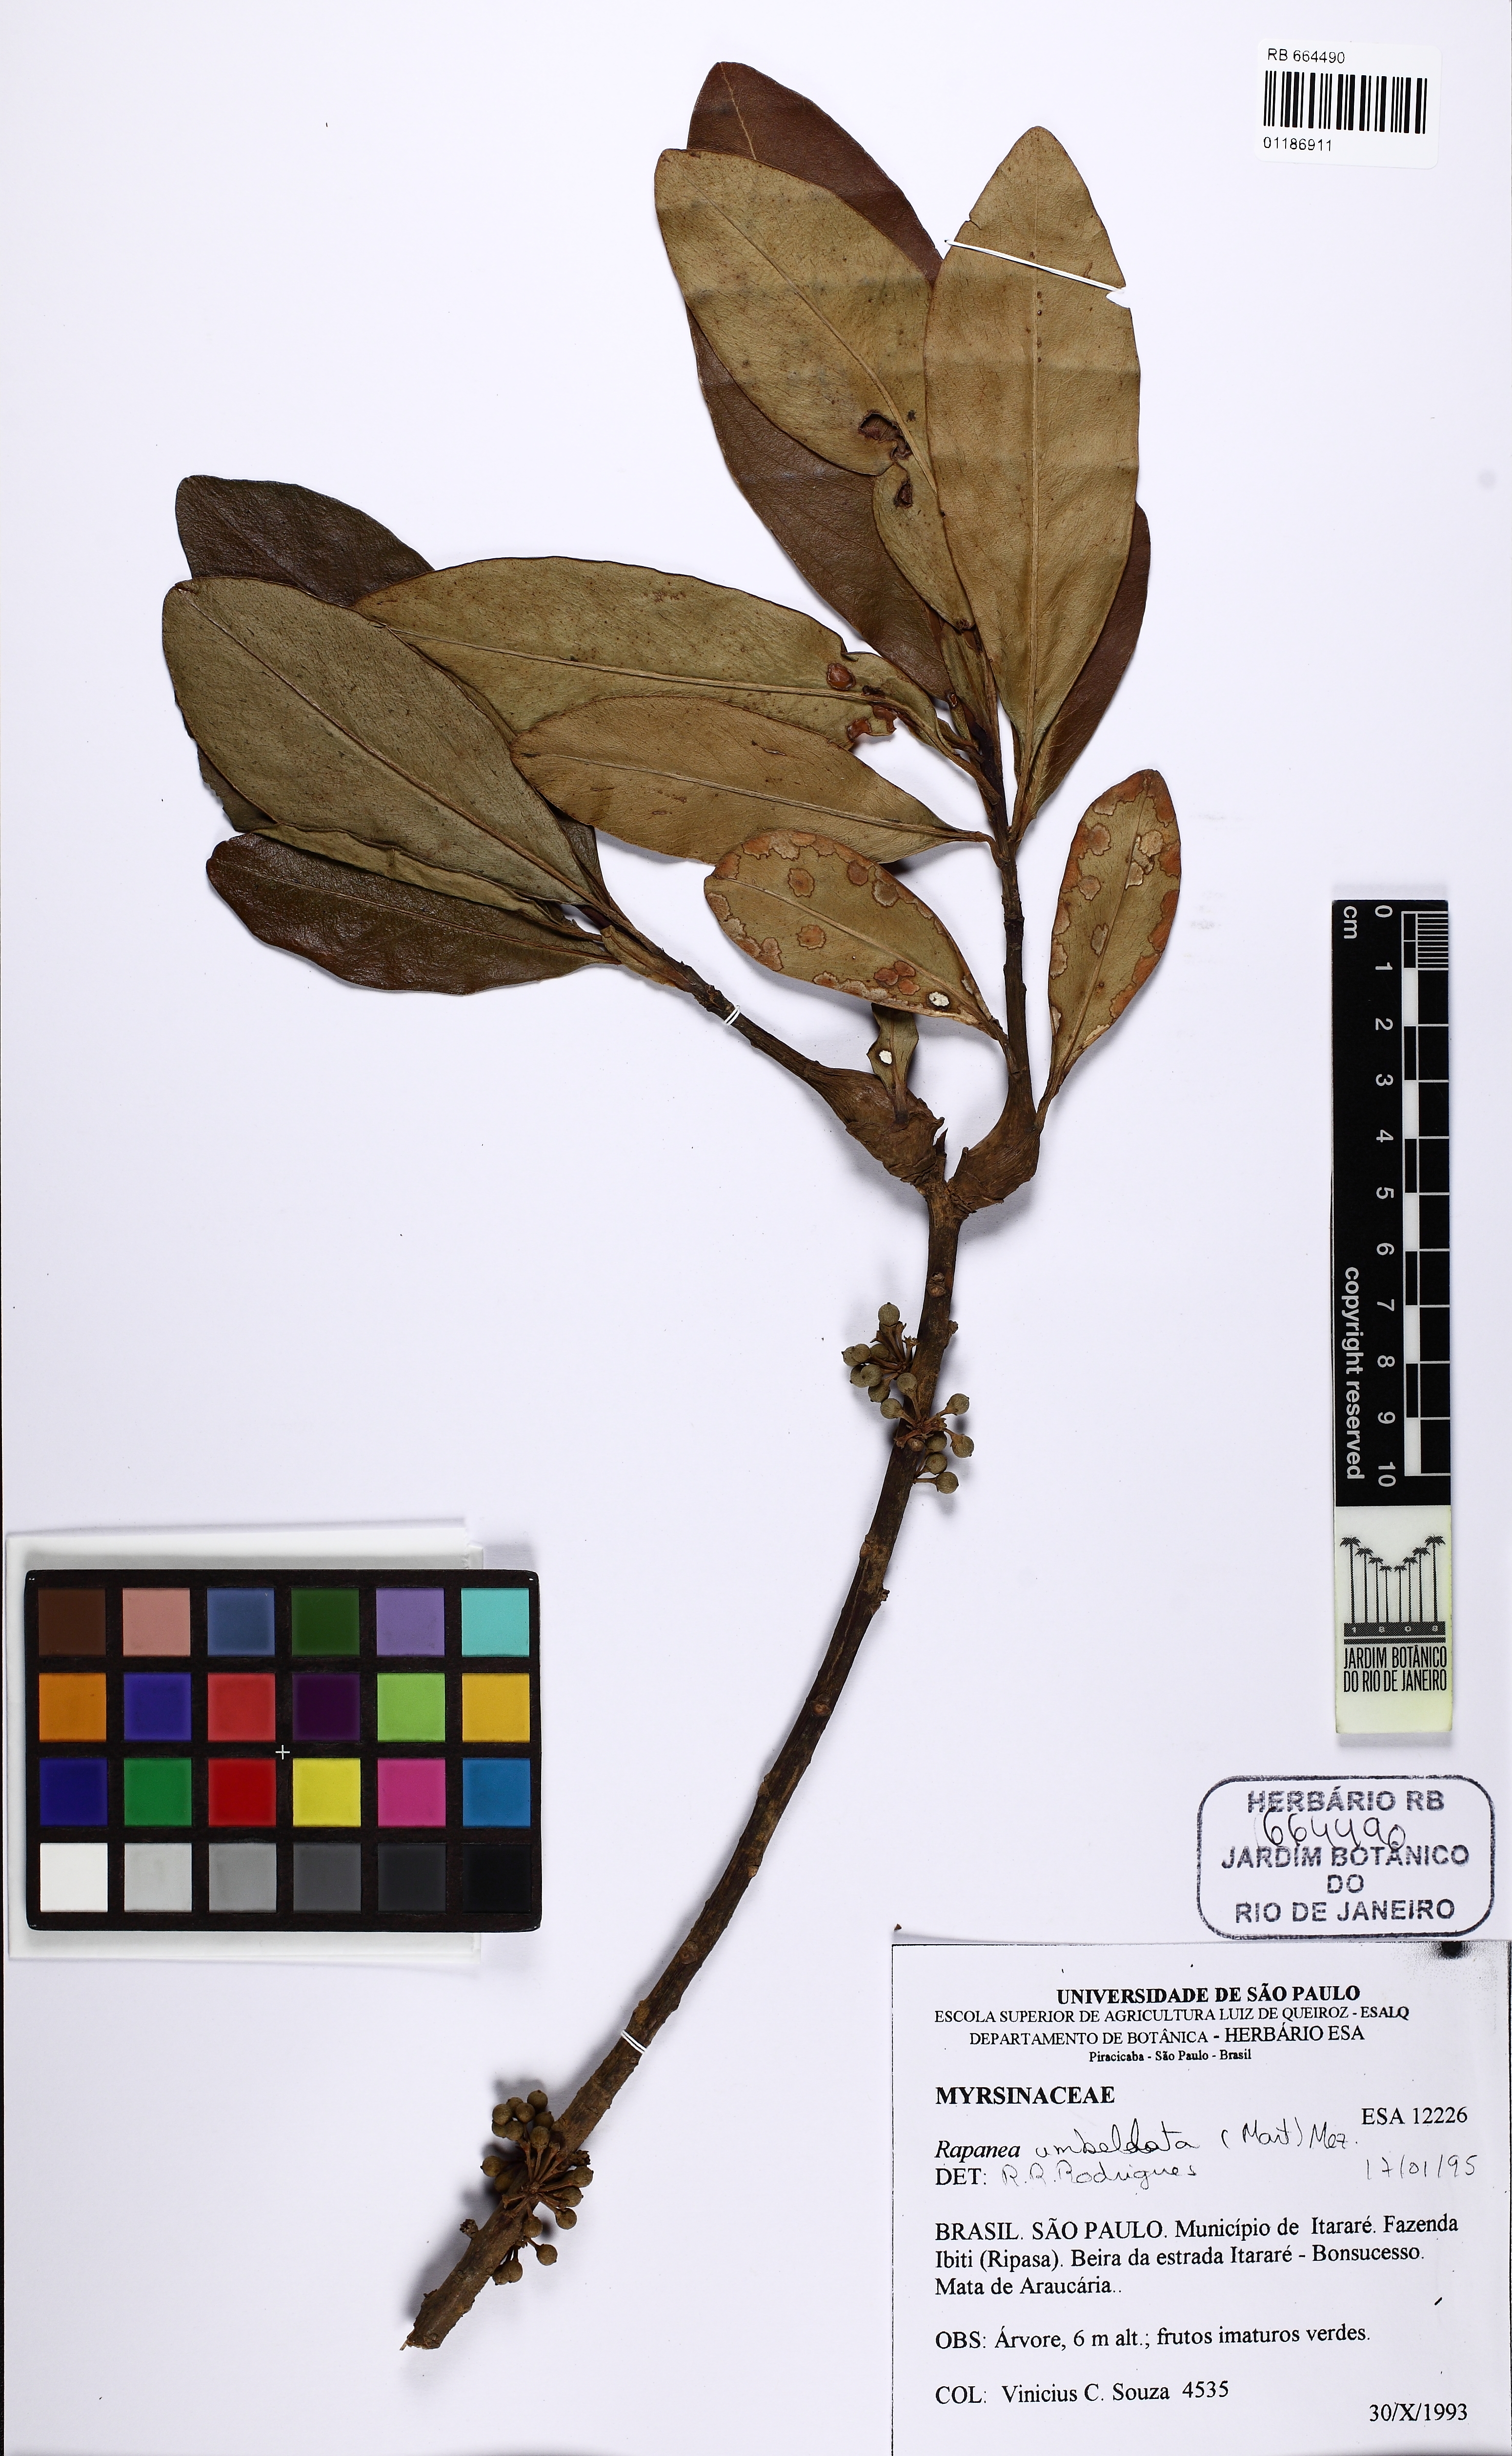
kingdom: Plantae
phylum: Tracheophyta
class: Magnoliopsida
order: Ericales
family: Primulaceae
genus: Myrsine
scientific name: Myrsine umbellata
